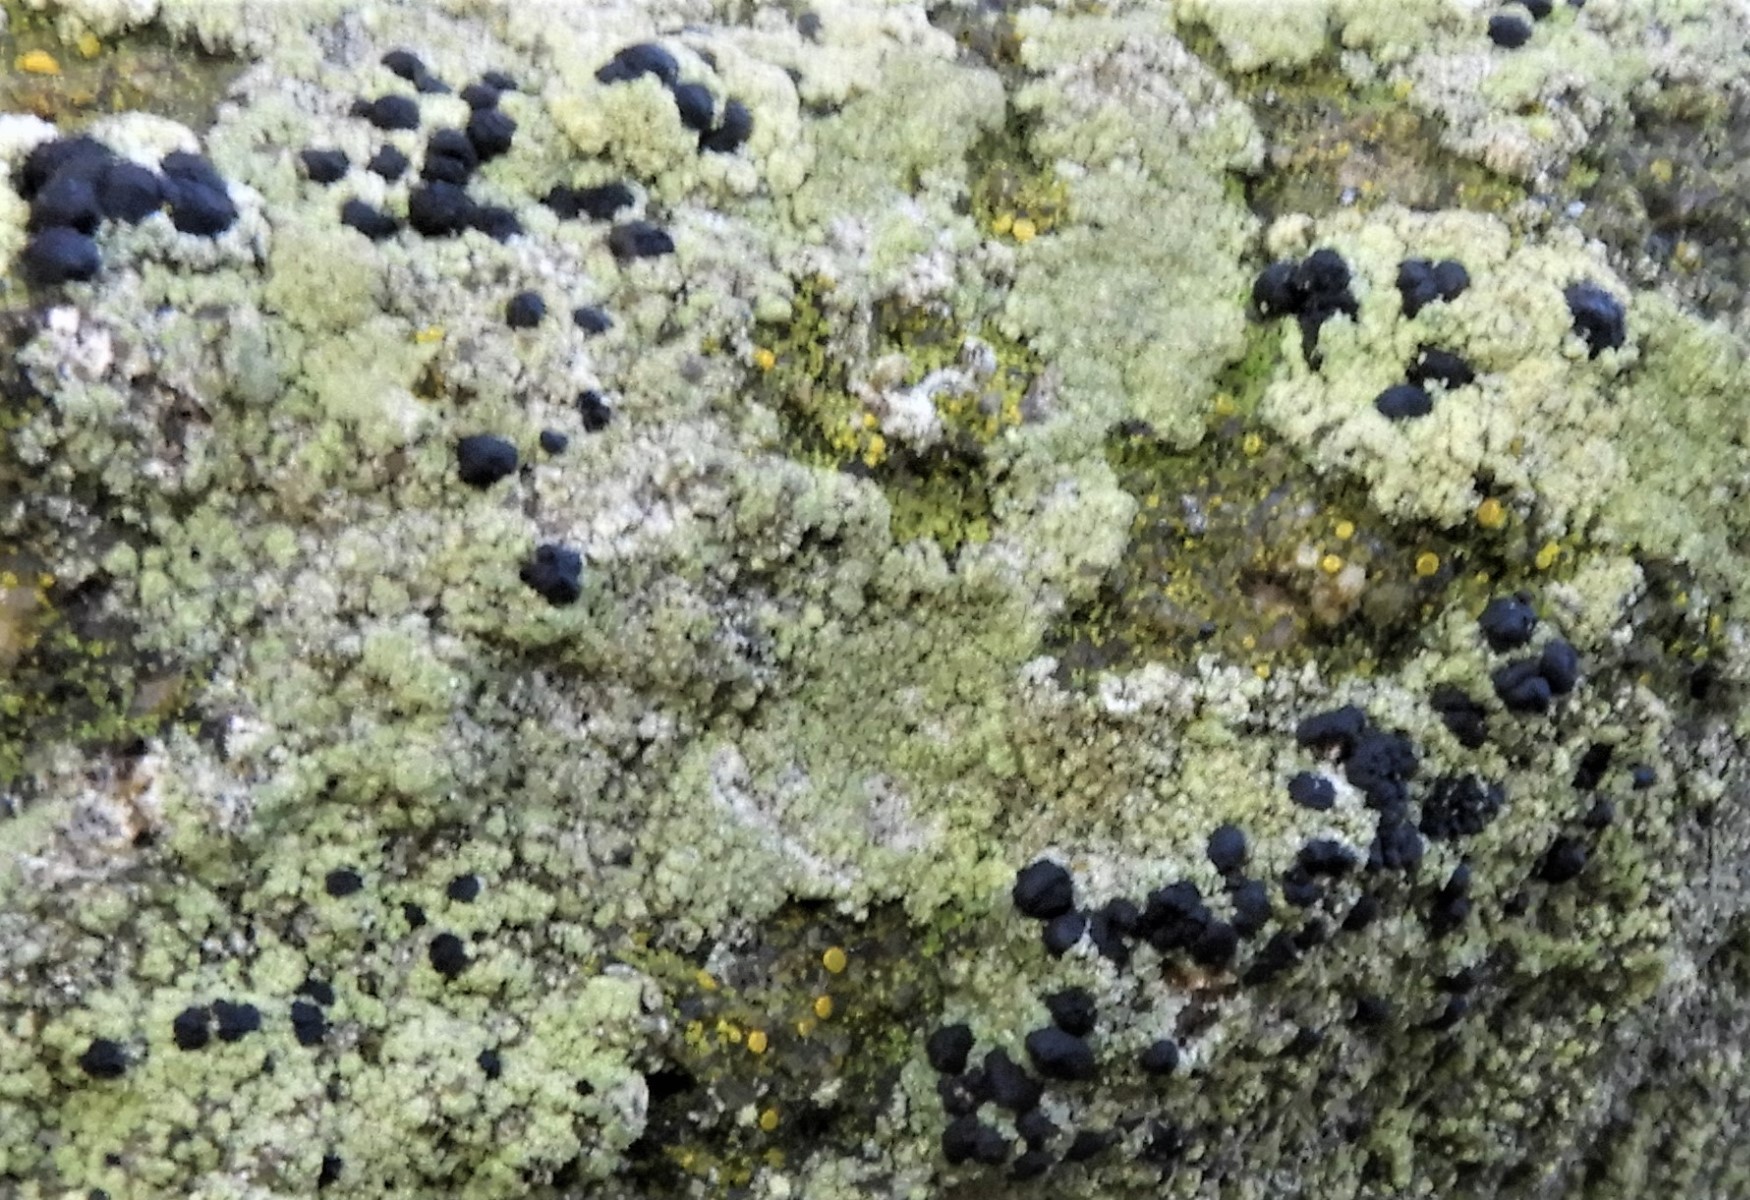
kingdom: Fungi
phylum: Ascomycota
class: Lecanoromycetes
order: Lecanorales
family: Lecanoraceae
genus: Lecidella
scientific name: Lecidella scabra
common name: skurvet skivelav
